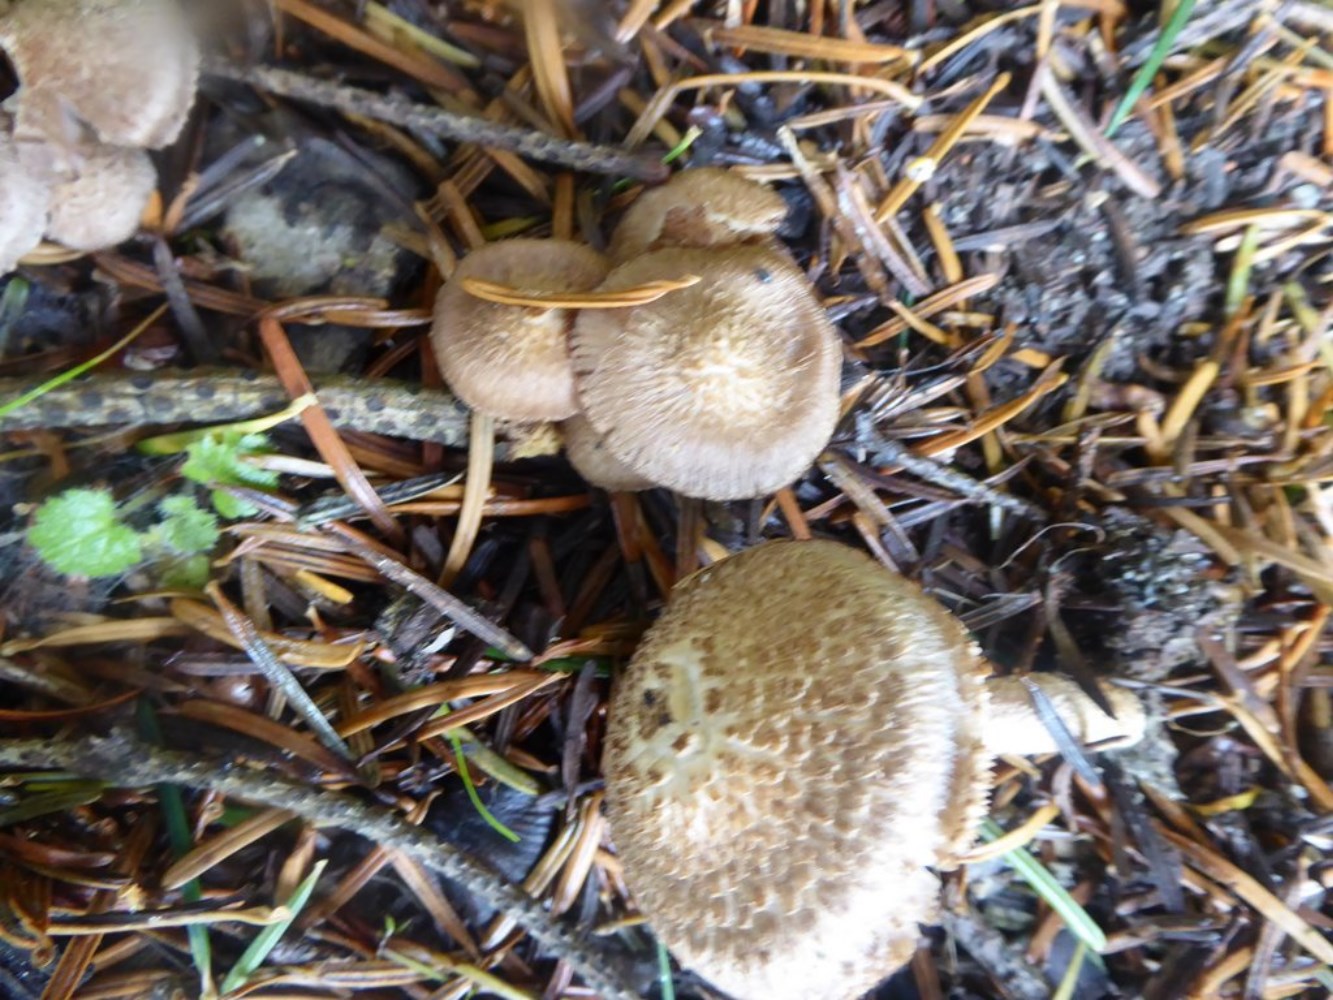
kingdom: Fungi
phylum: Basidiomycota
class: Agaricomycetes
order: Agaricales
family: Inocybaceae
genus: Inocybe
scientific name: Inocybe
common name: trævlhat
